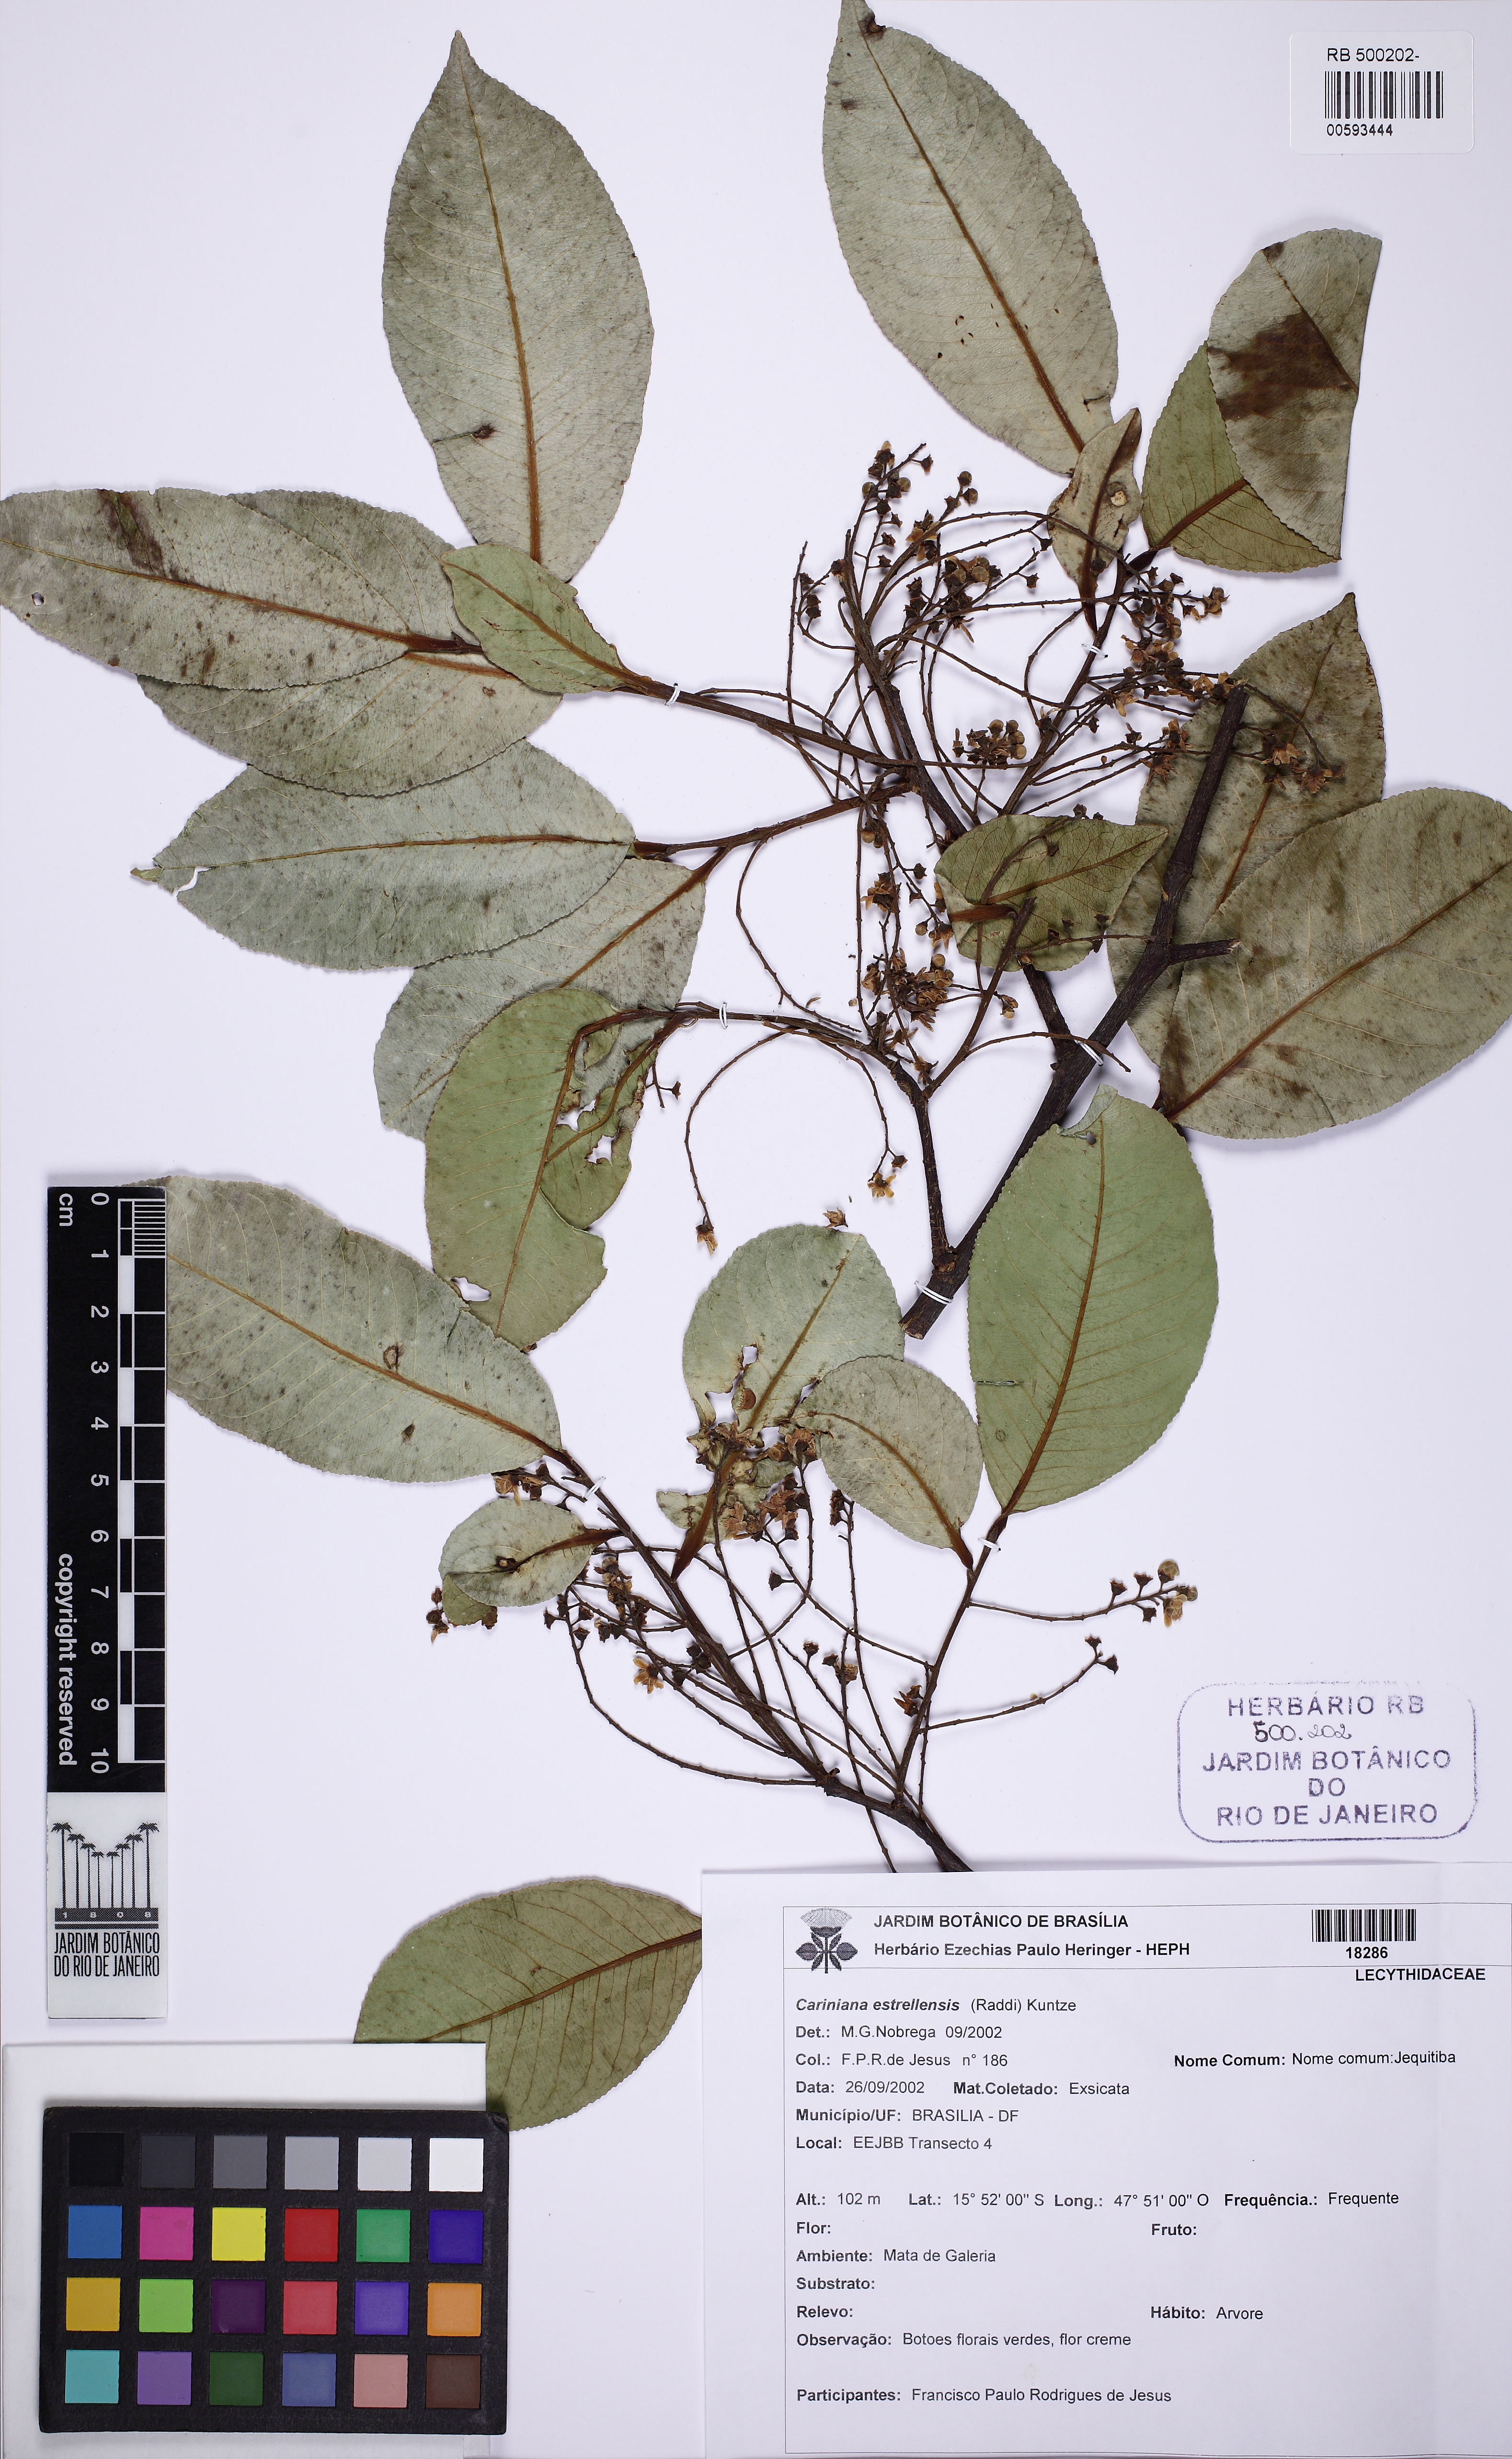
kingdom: Plantae
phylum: Tracheophyta
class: Magnoliopsida
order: Ericales
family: Lecythidaceae
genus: Cariniana
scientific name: Cariniana estrellensis
